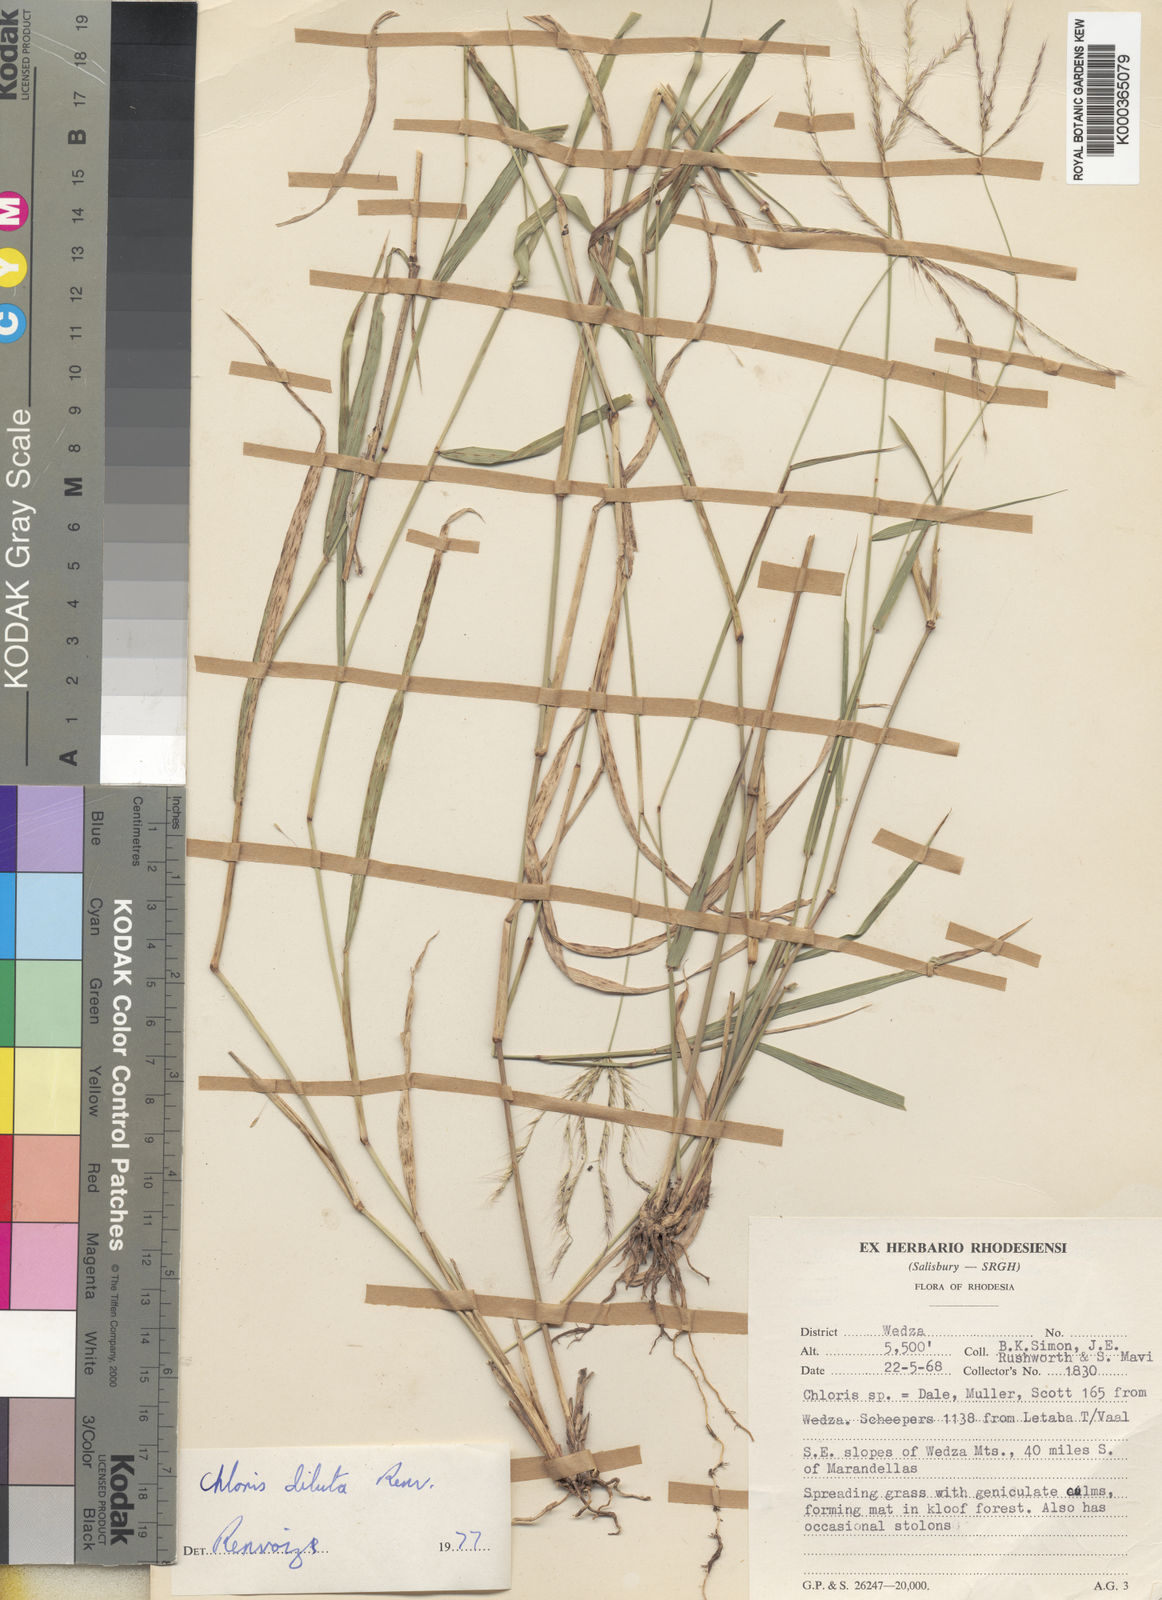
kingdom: Plantae
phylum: Tracheophyta
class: Liliopsida
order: Poales
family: Poaceae
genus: Chloris
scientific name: Chloris diluta
